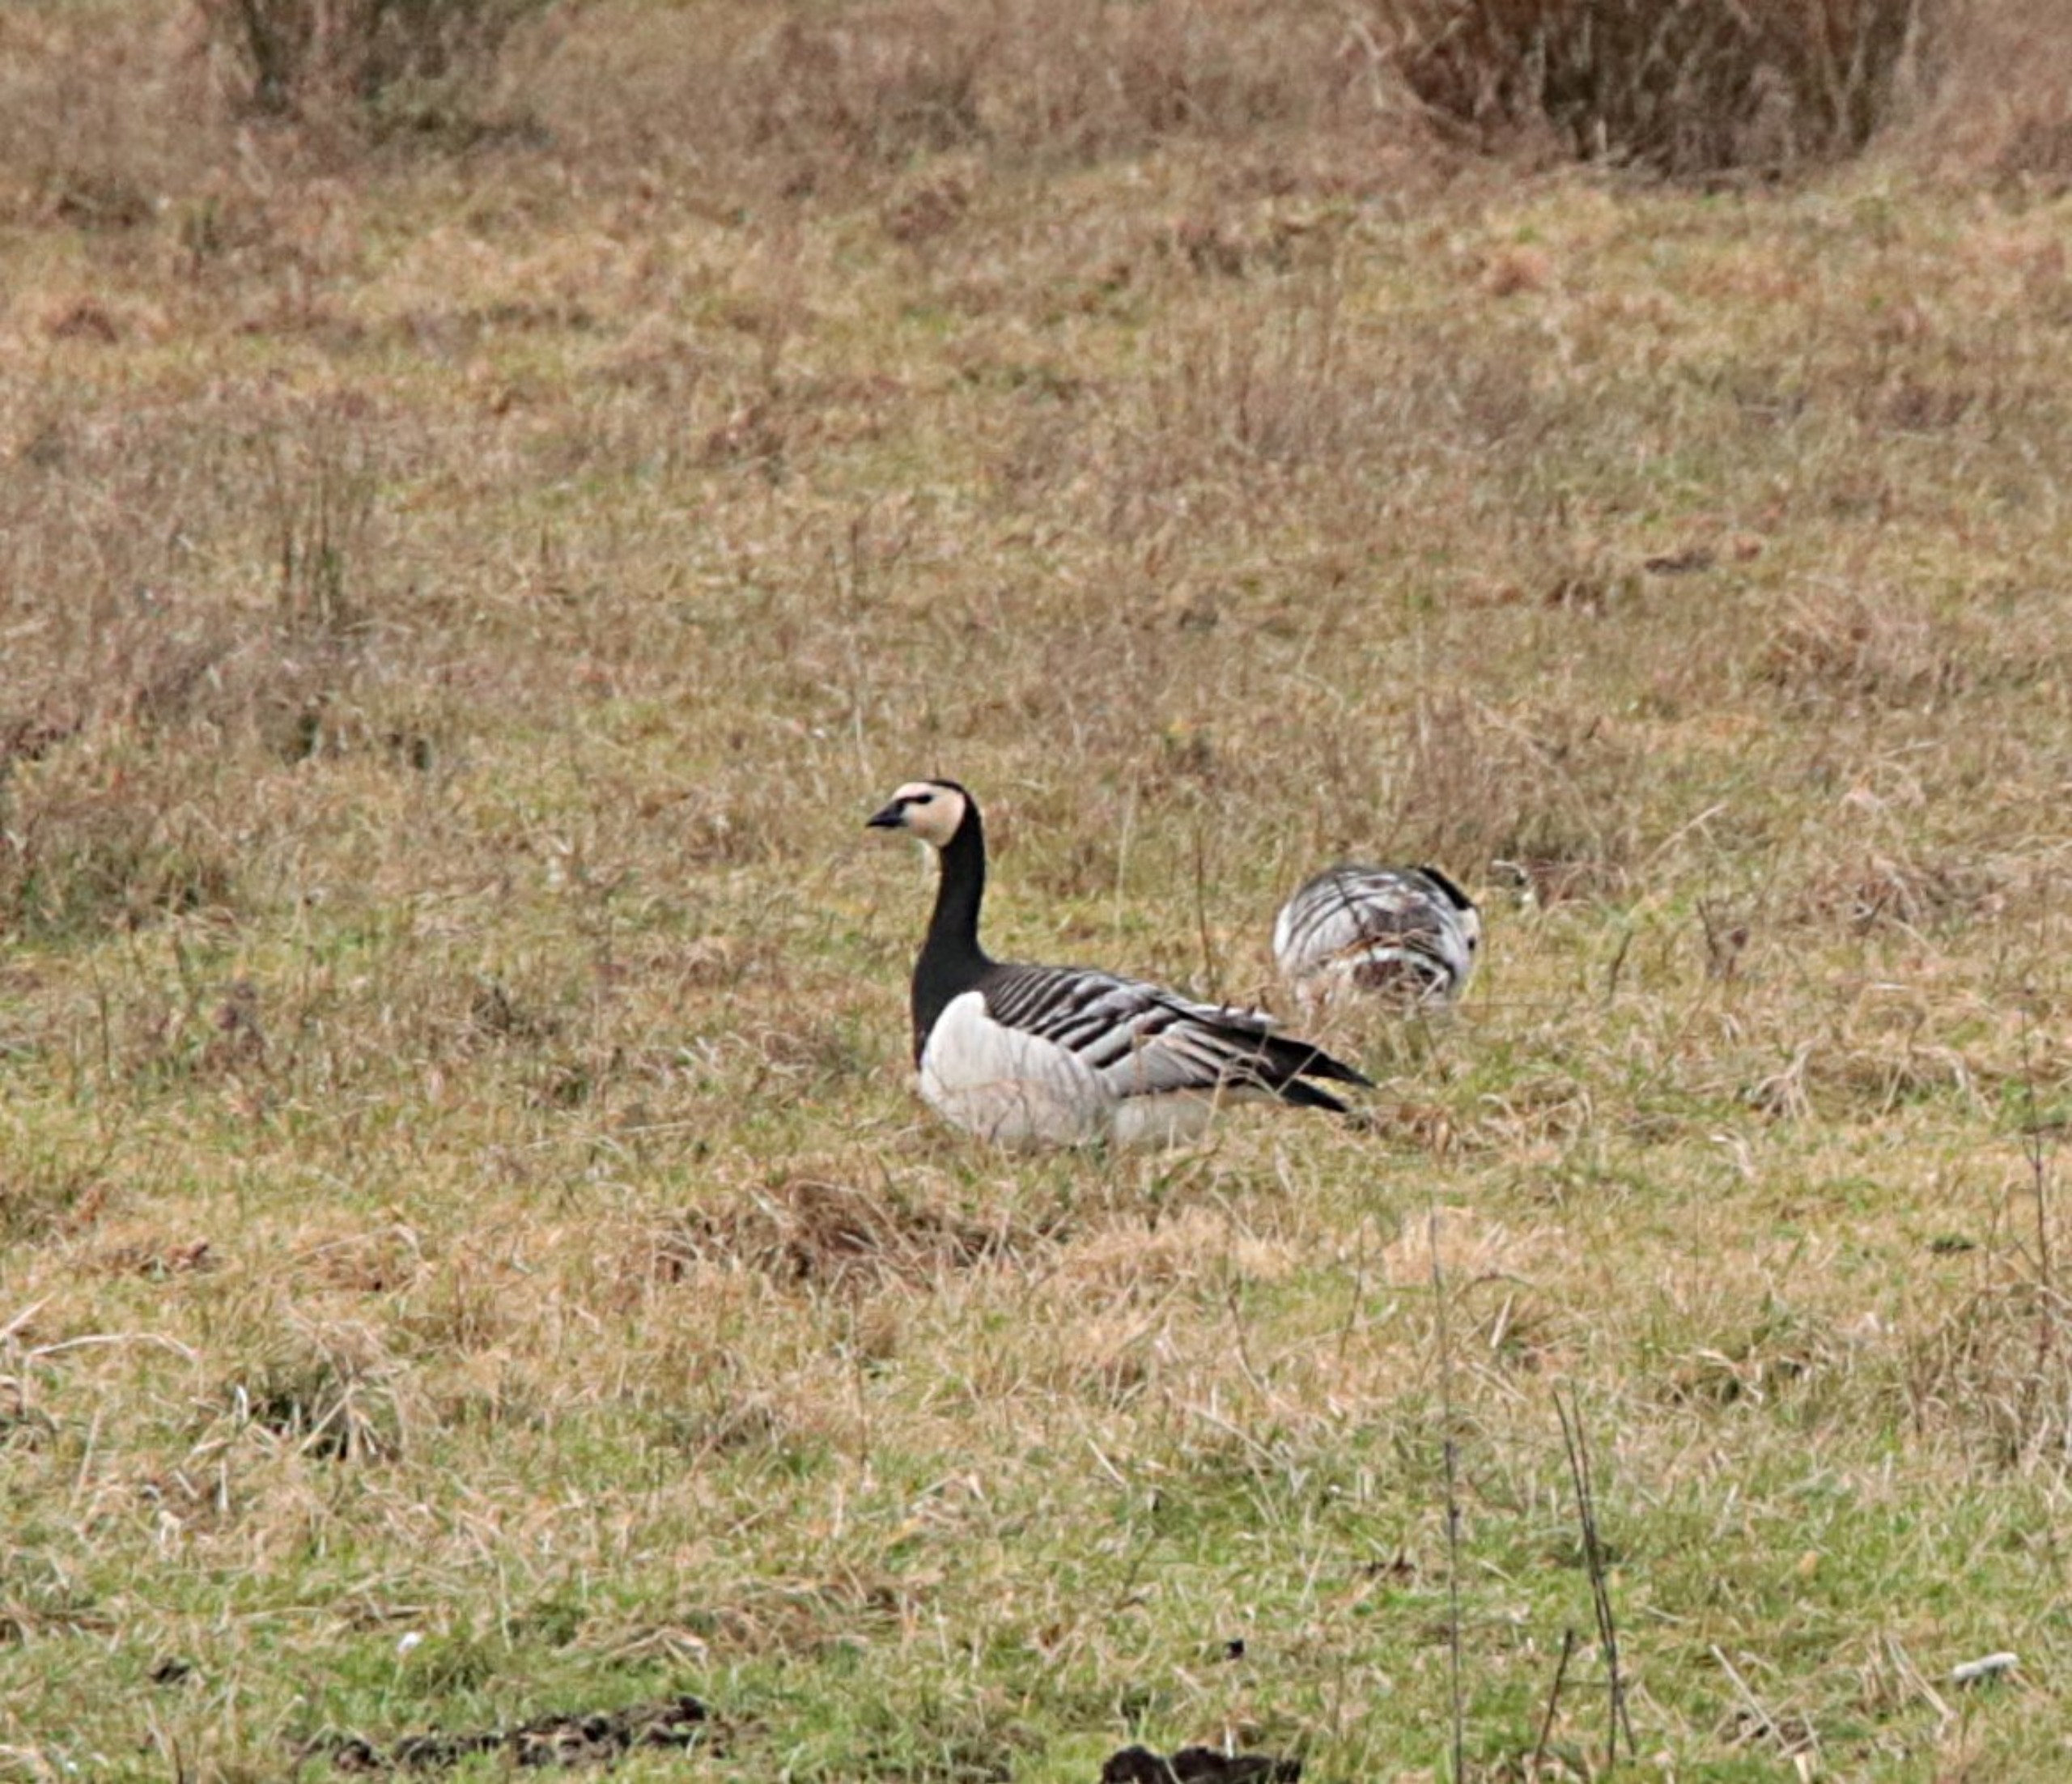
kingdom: Animalia
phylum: Chordata
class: Aves
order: Anseriformes
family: Anatidae
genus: Branta
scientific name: Branta leucopsis
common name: Bramgås
